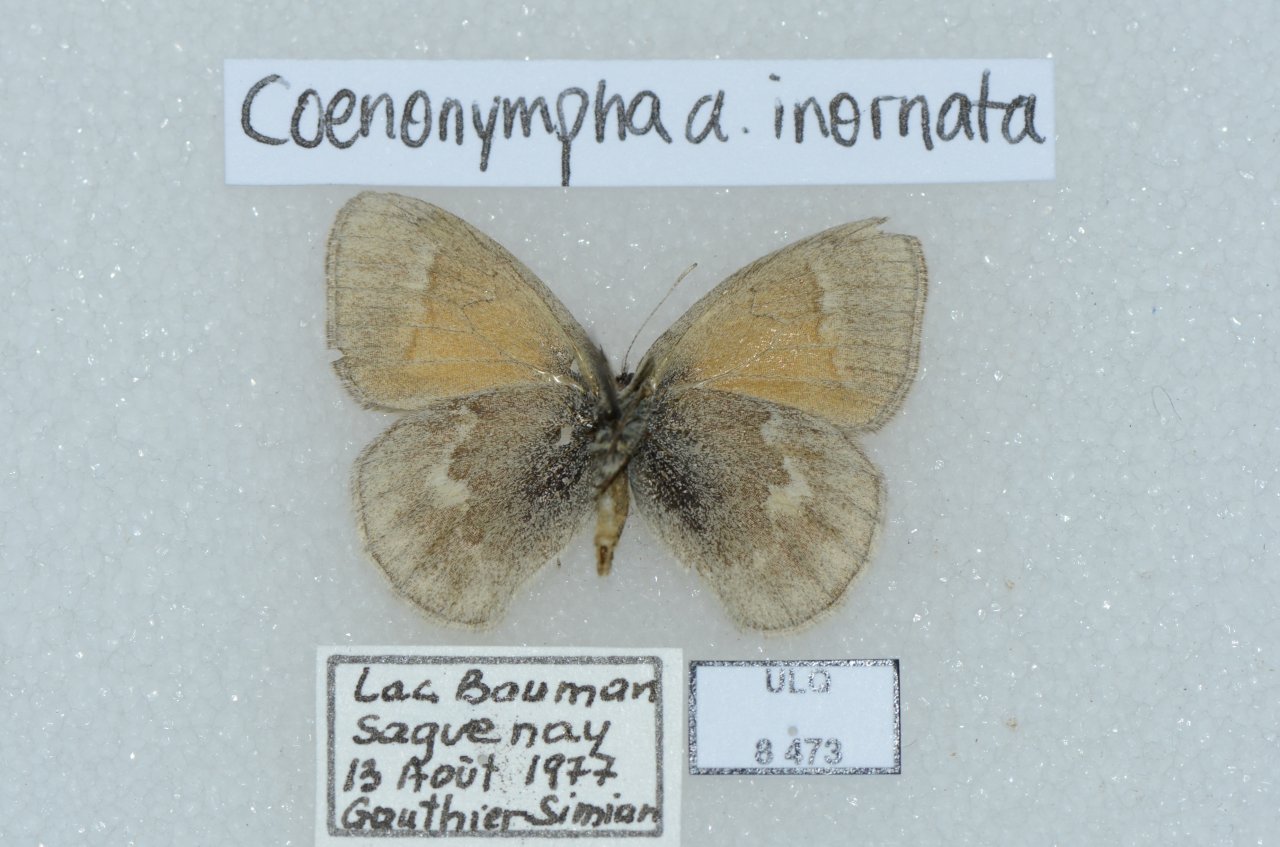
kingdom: Animalia
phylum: Arthropoda
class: Insecta
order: Lepidoptera
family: Nymphalidae
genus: Coenonympha
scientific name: Coenonympha tullia
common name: Large Heath
